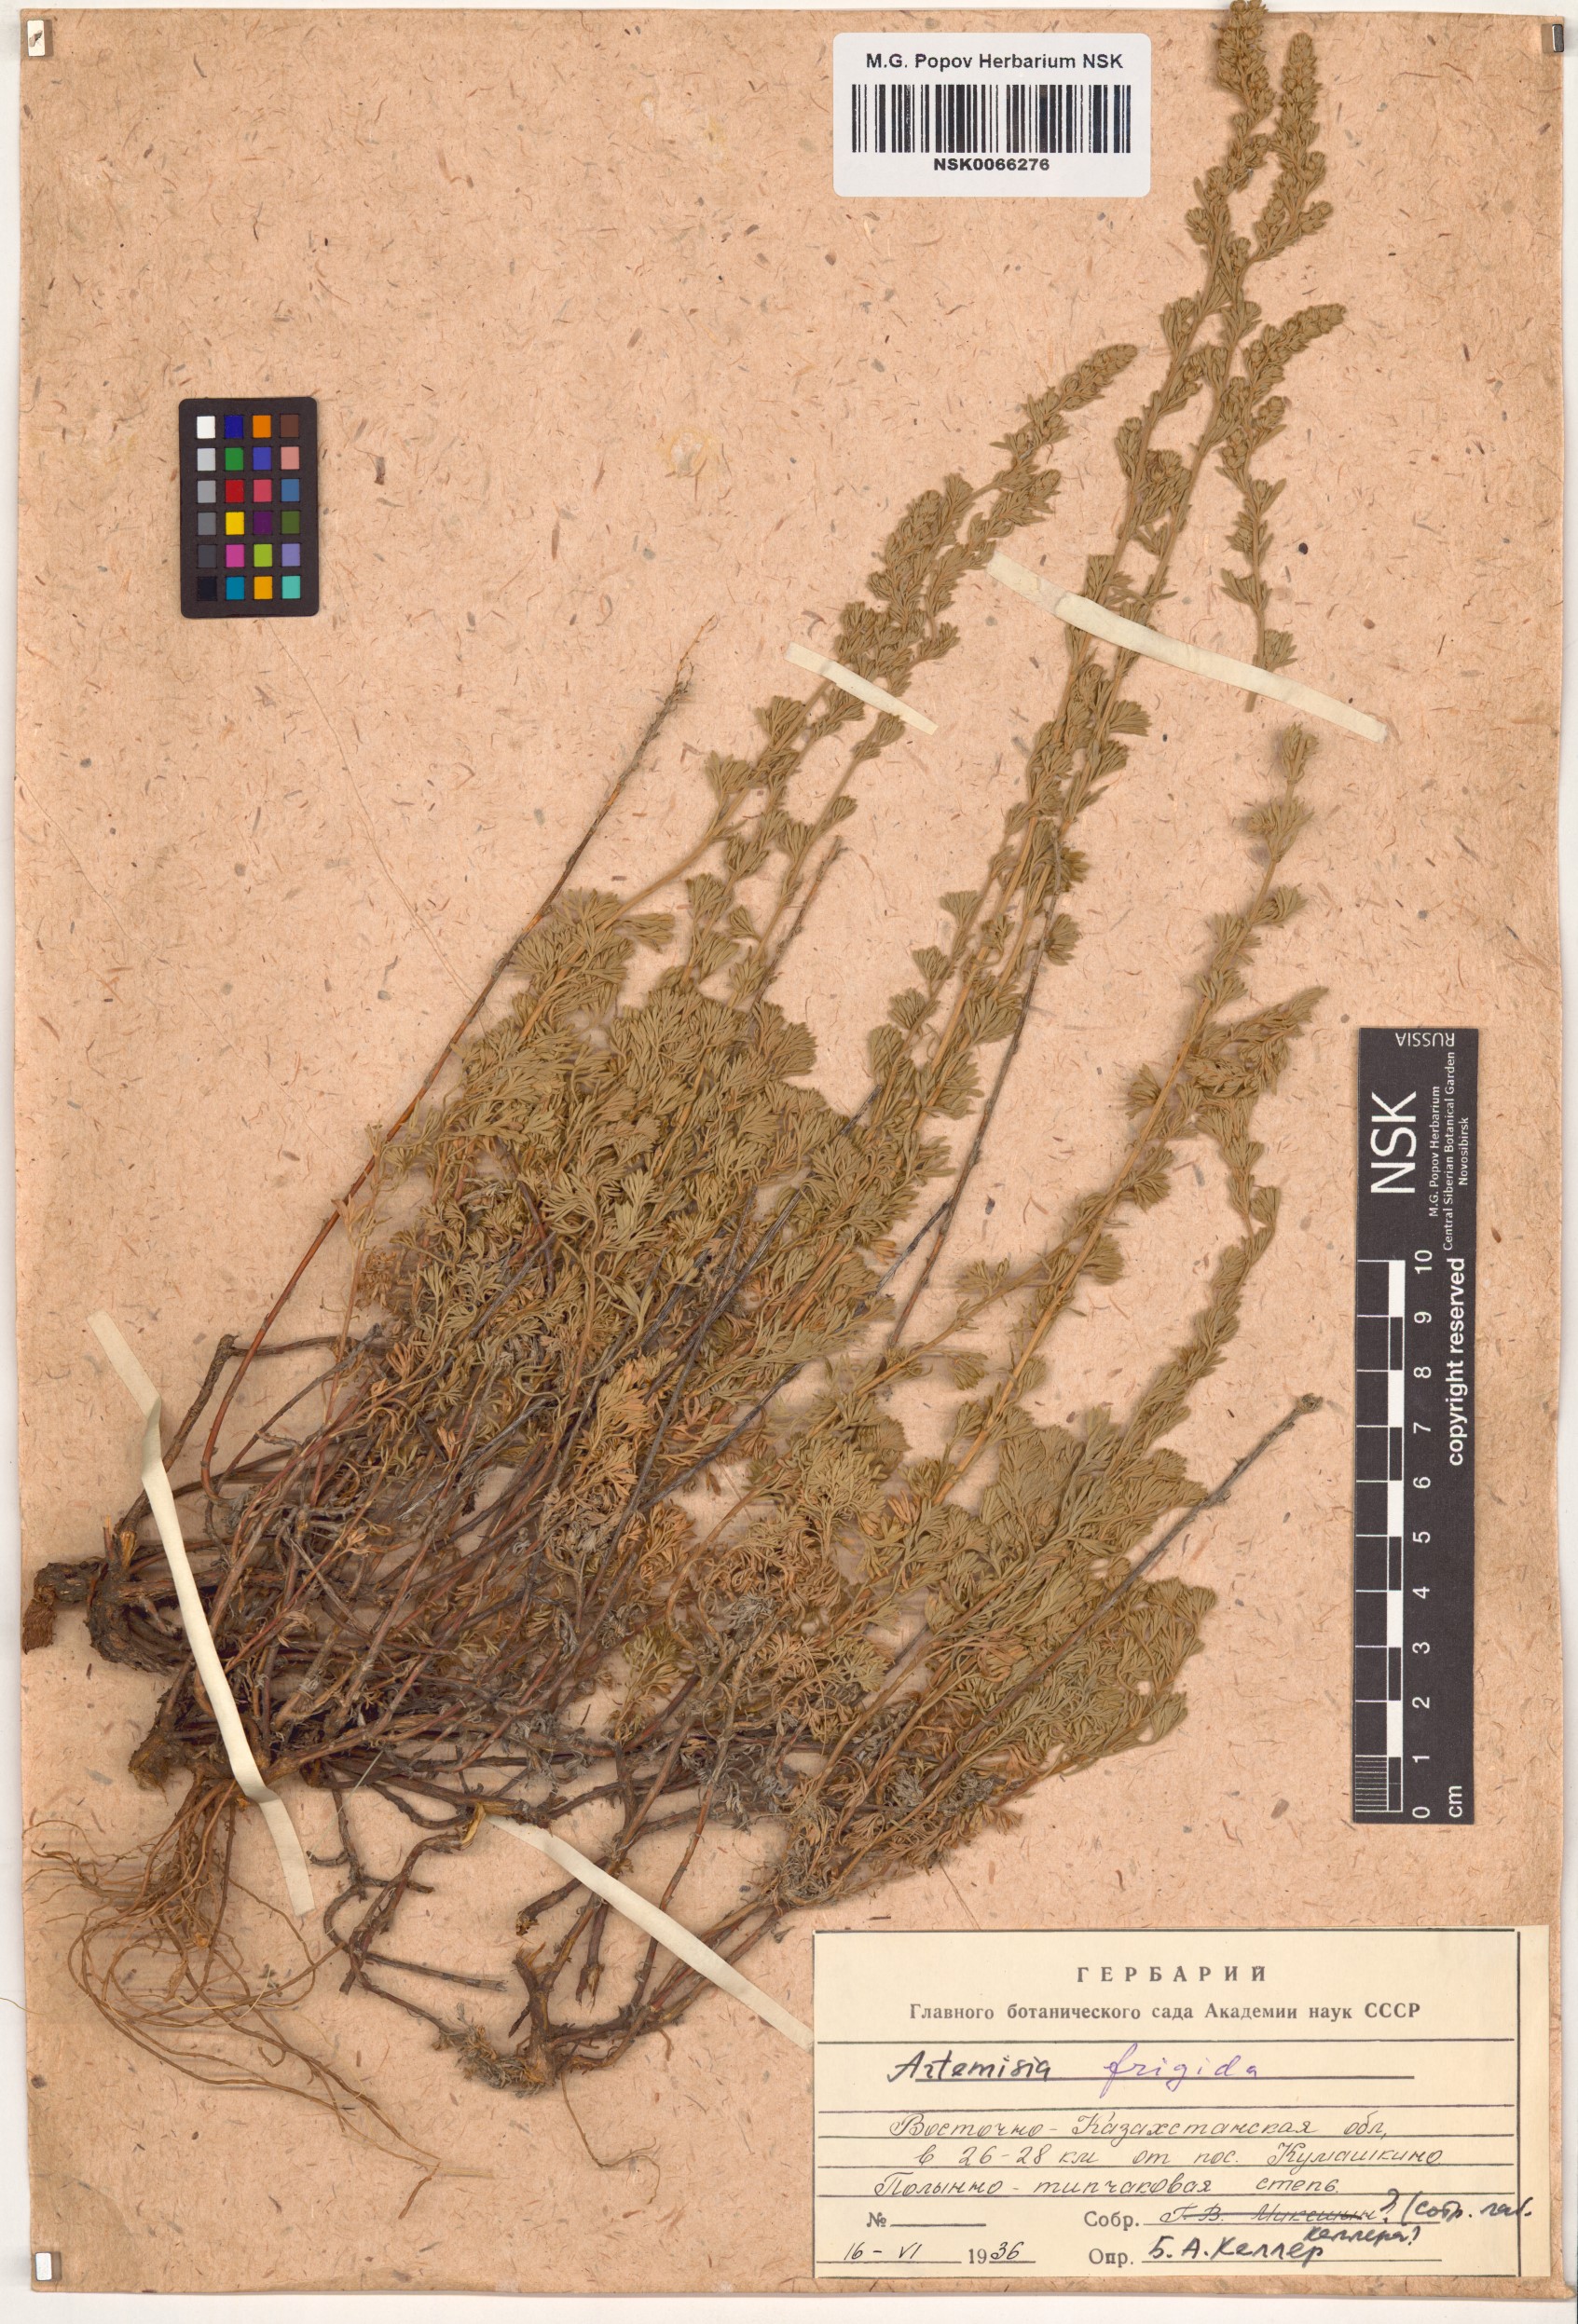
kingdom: Plantae
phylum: Tracheophyta
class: Magnoliopsida
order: Asterales
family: Asteraceae
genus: Artemisia
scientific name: Artemisia frigida
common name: Prairie sagewort
